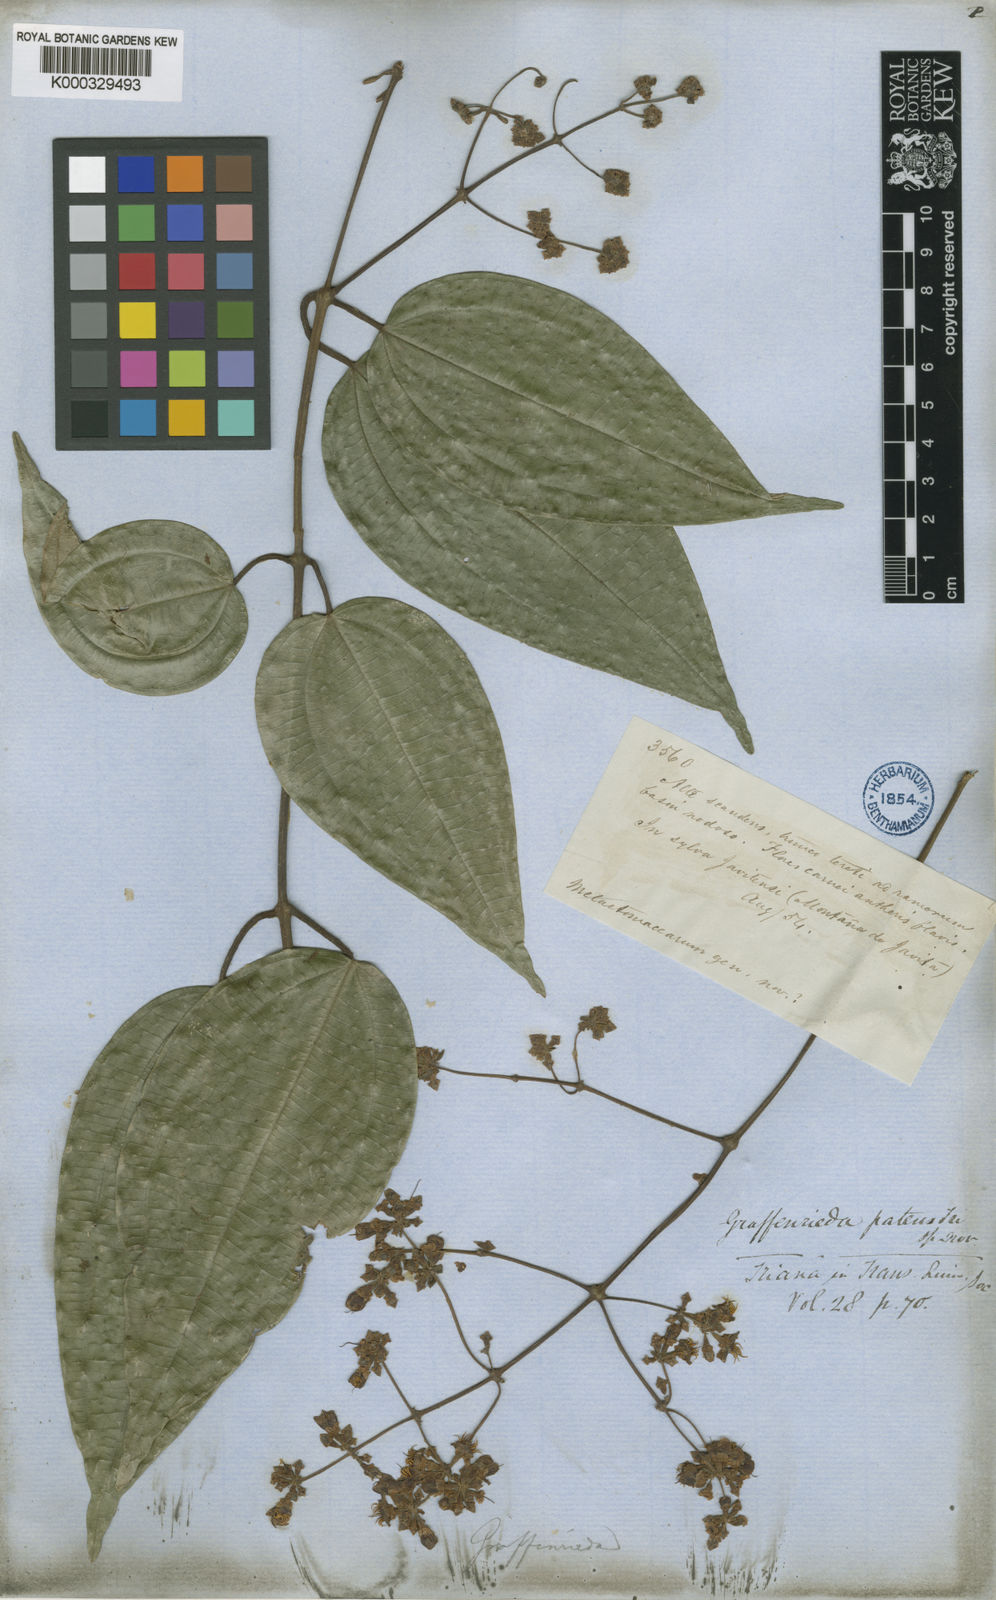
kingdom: Plantae
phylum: Tracheophyta
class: Magnoliopsida
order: Myrtales
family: Melastomataceae
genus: Graffenrieda
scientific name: Graffenrieda patens
